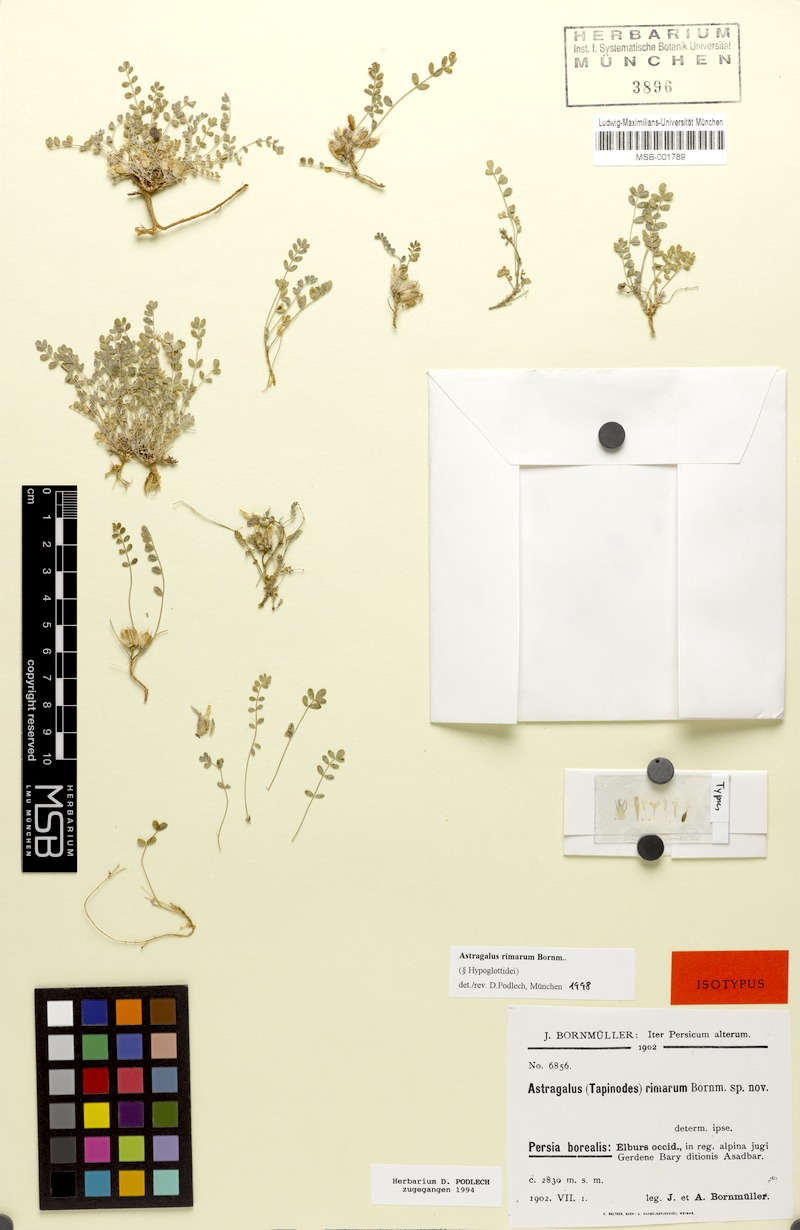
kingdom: Plantae
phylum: Tracheophyta
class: Magnoliopsida
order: Fabales
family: Fabaceae
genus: Astragalus
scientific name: Astragalus rimarum
